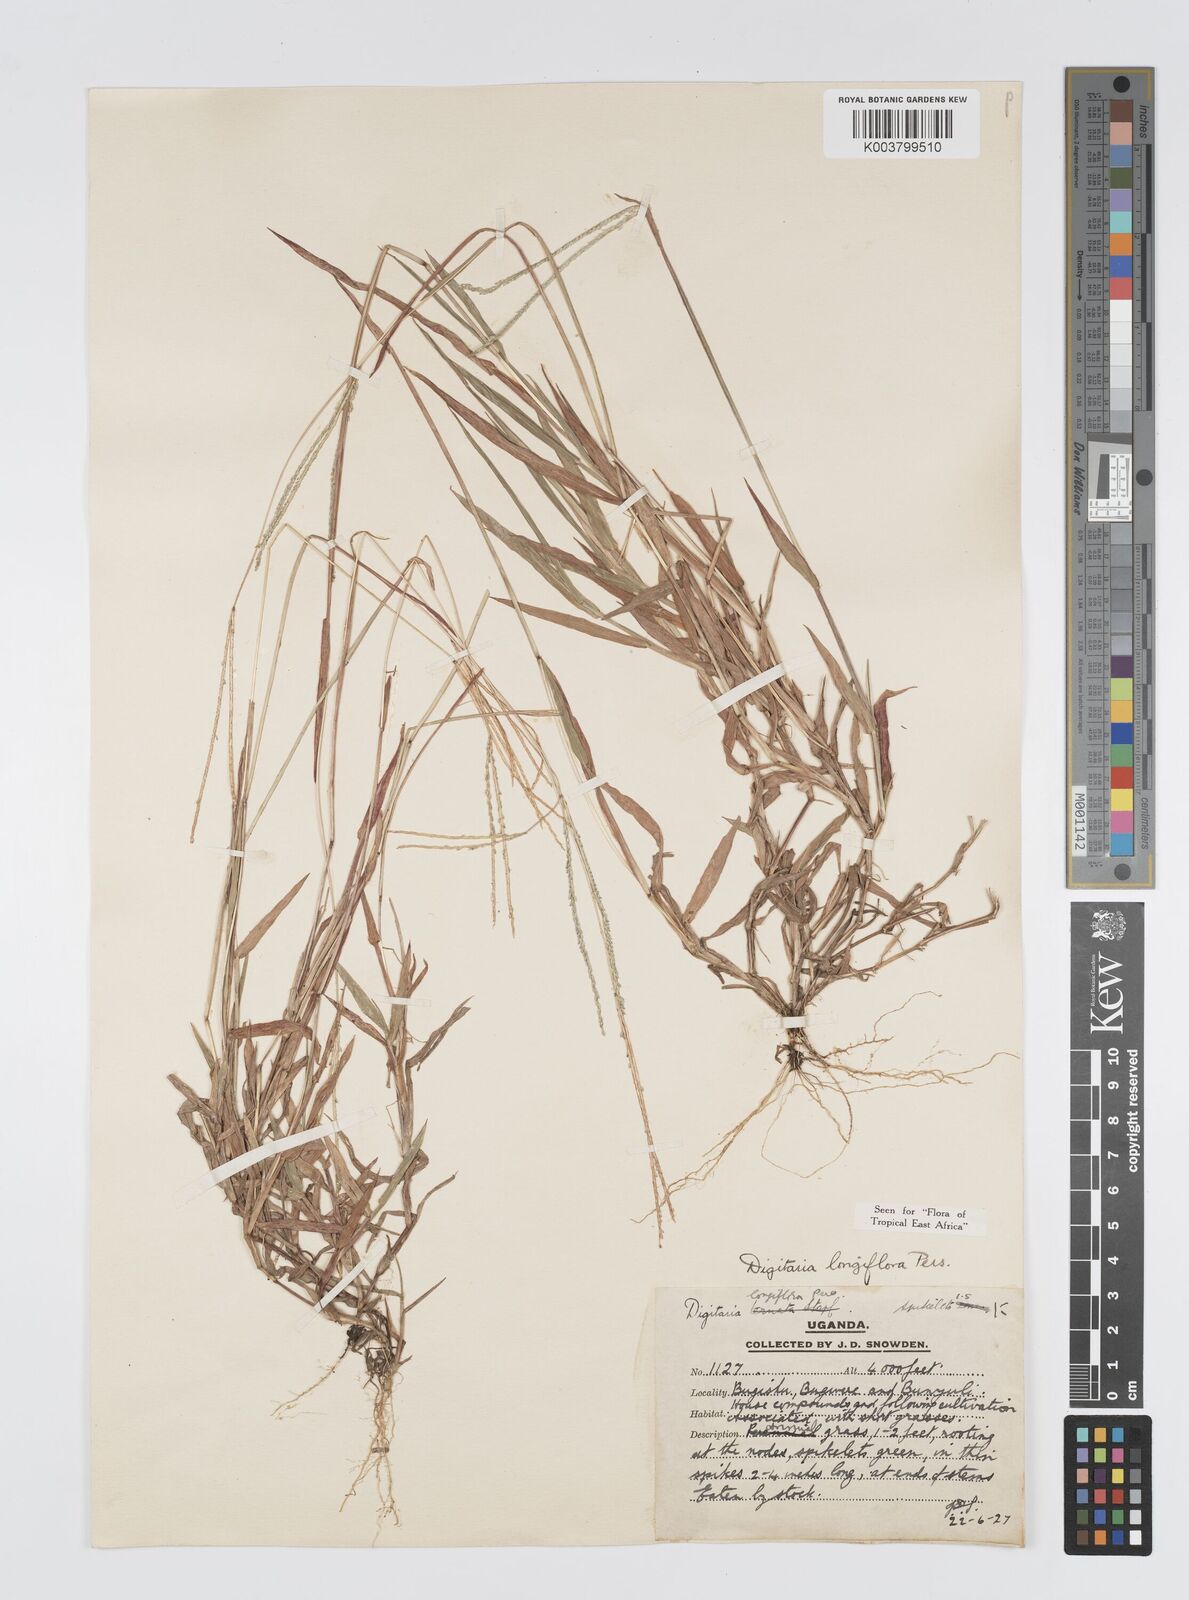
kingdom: Plantae
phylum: Tracheophyta
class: Liliopsida
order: Poales
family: Poaceae
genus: Digitaria
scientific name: Digitaria longiflora
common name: Wire crabgrass
